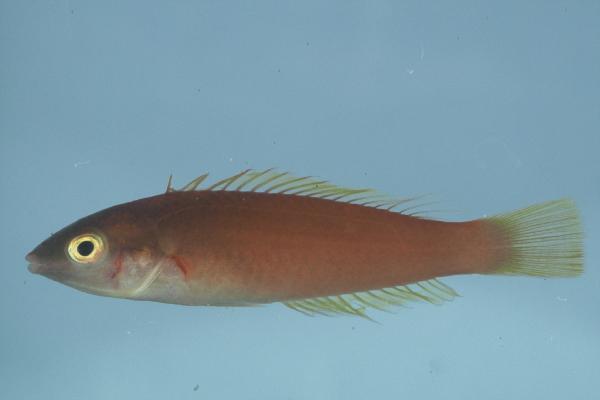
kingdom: Animalia
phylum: Chordata
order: Perciformes
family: Labridae
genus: Pseudojuloides
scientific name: Pseudojuloides cerasinus
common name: Smalltail wrasse
